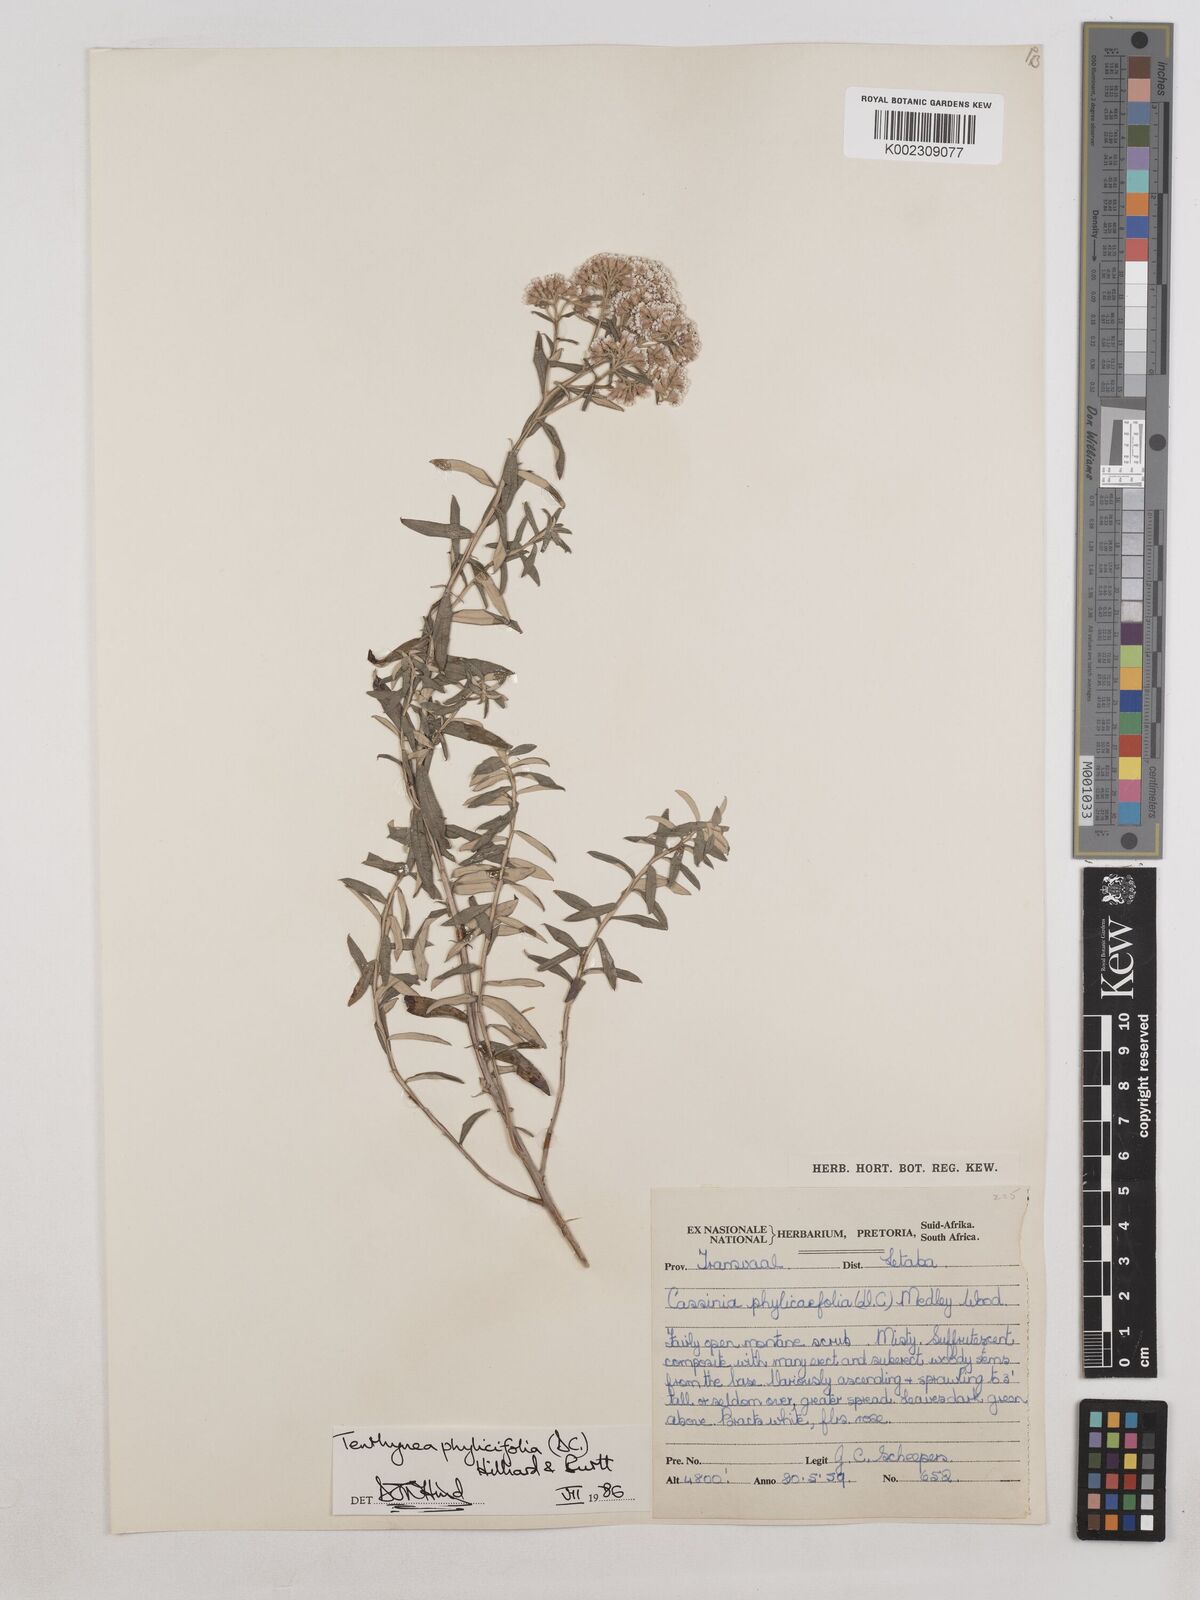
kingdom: Plantae
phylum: Tracheophyta
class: Magnoliopsida
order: Asterales
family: Asteraceae
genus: Tenrhynea
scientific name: Tenrhynea phylicifolia
